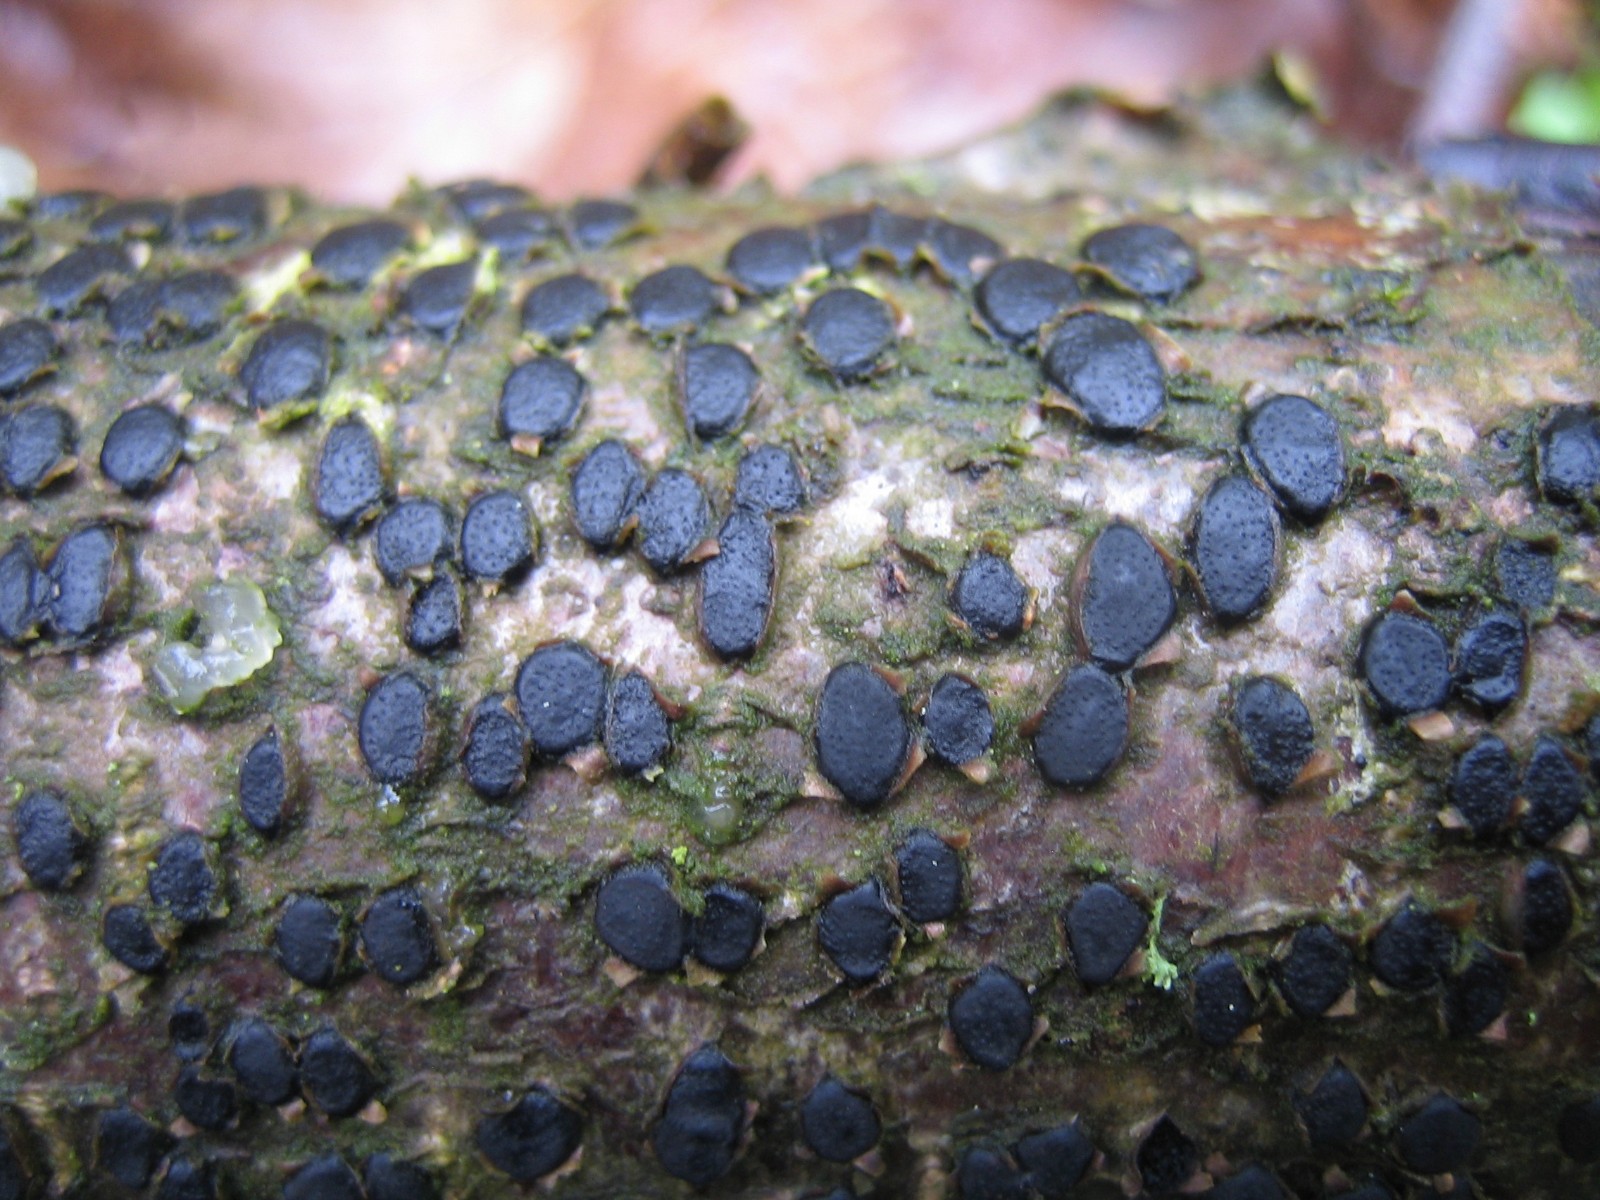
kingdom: Fungi
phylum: Ascomycota
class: Sordariomycetes
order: Xylariales
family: Diatrypaceae
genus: Diatrype
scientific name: Diatrype disciformis
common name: kant-kulskorpe
